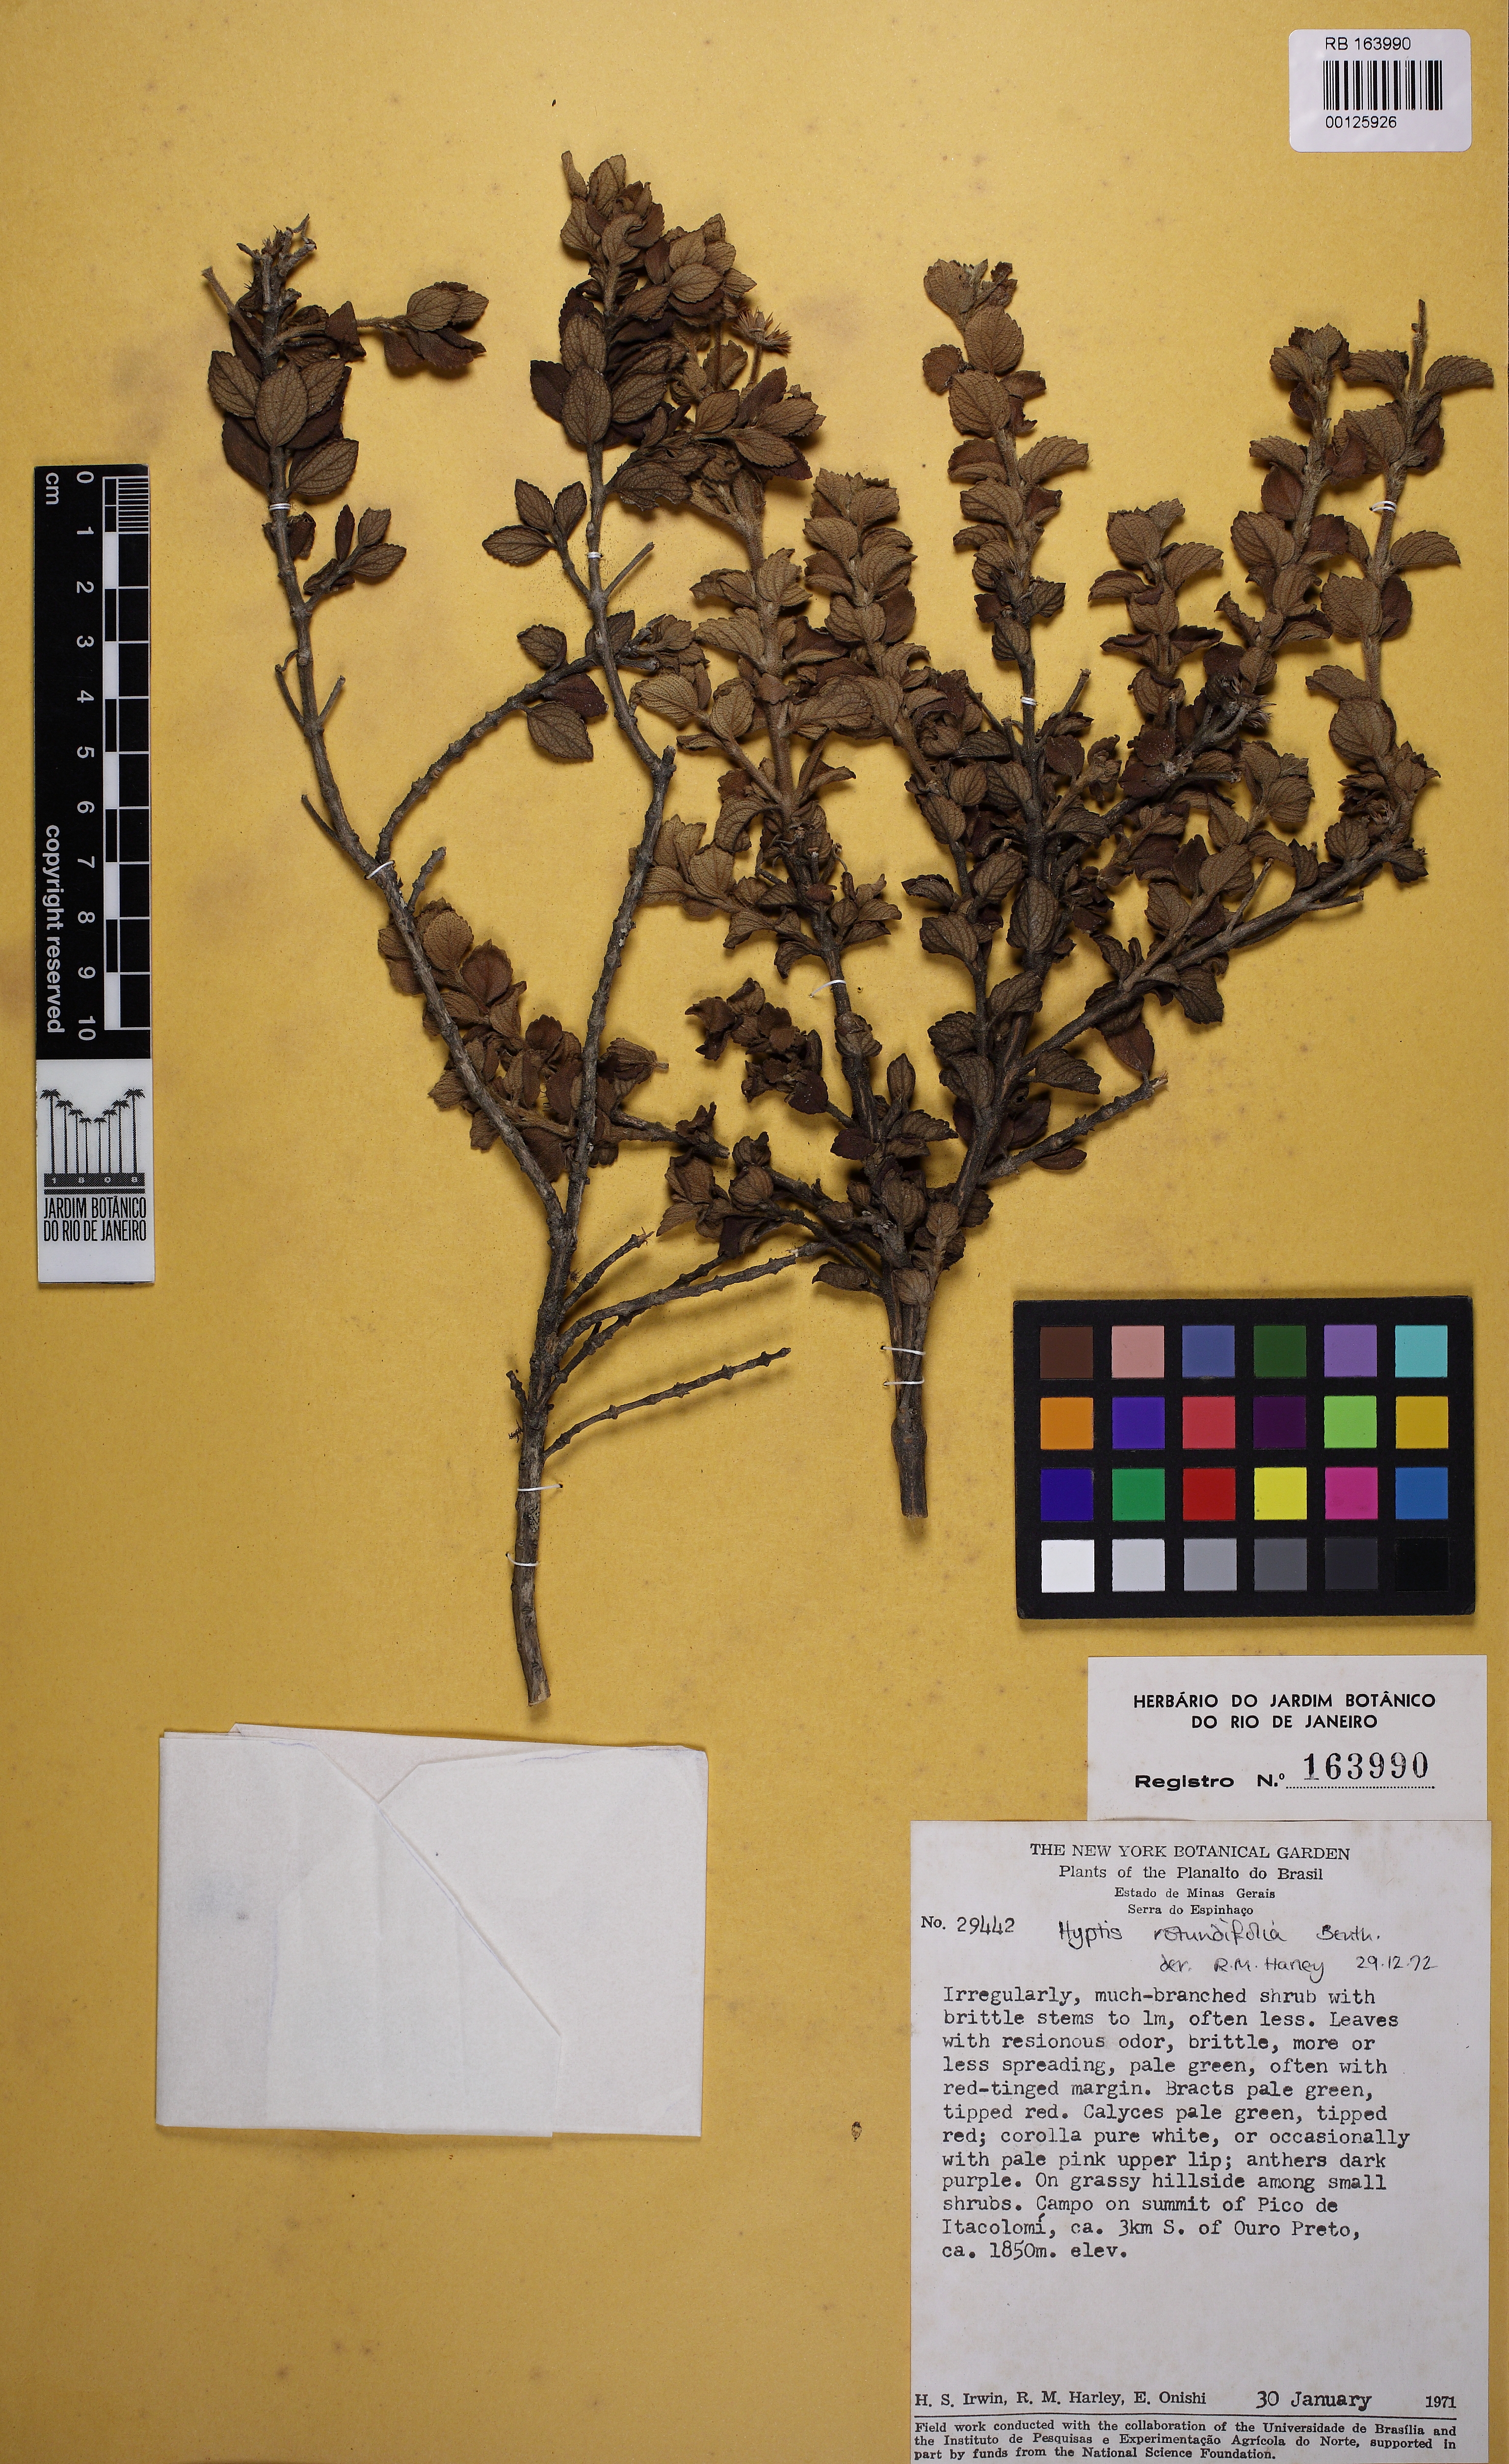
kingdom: Plantae
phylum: Tracheophyta
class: Magnoliopsida
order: Lamiales
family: Lamiaceae
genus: Hyptis
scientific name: Hyptis rotundifolia
